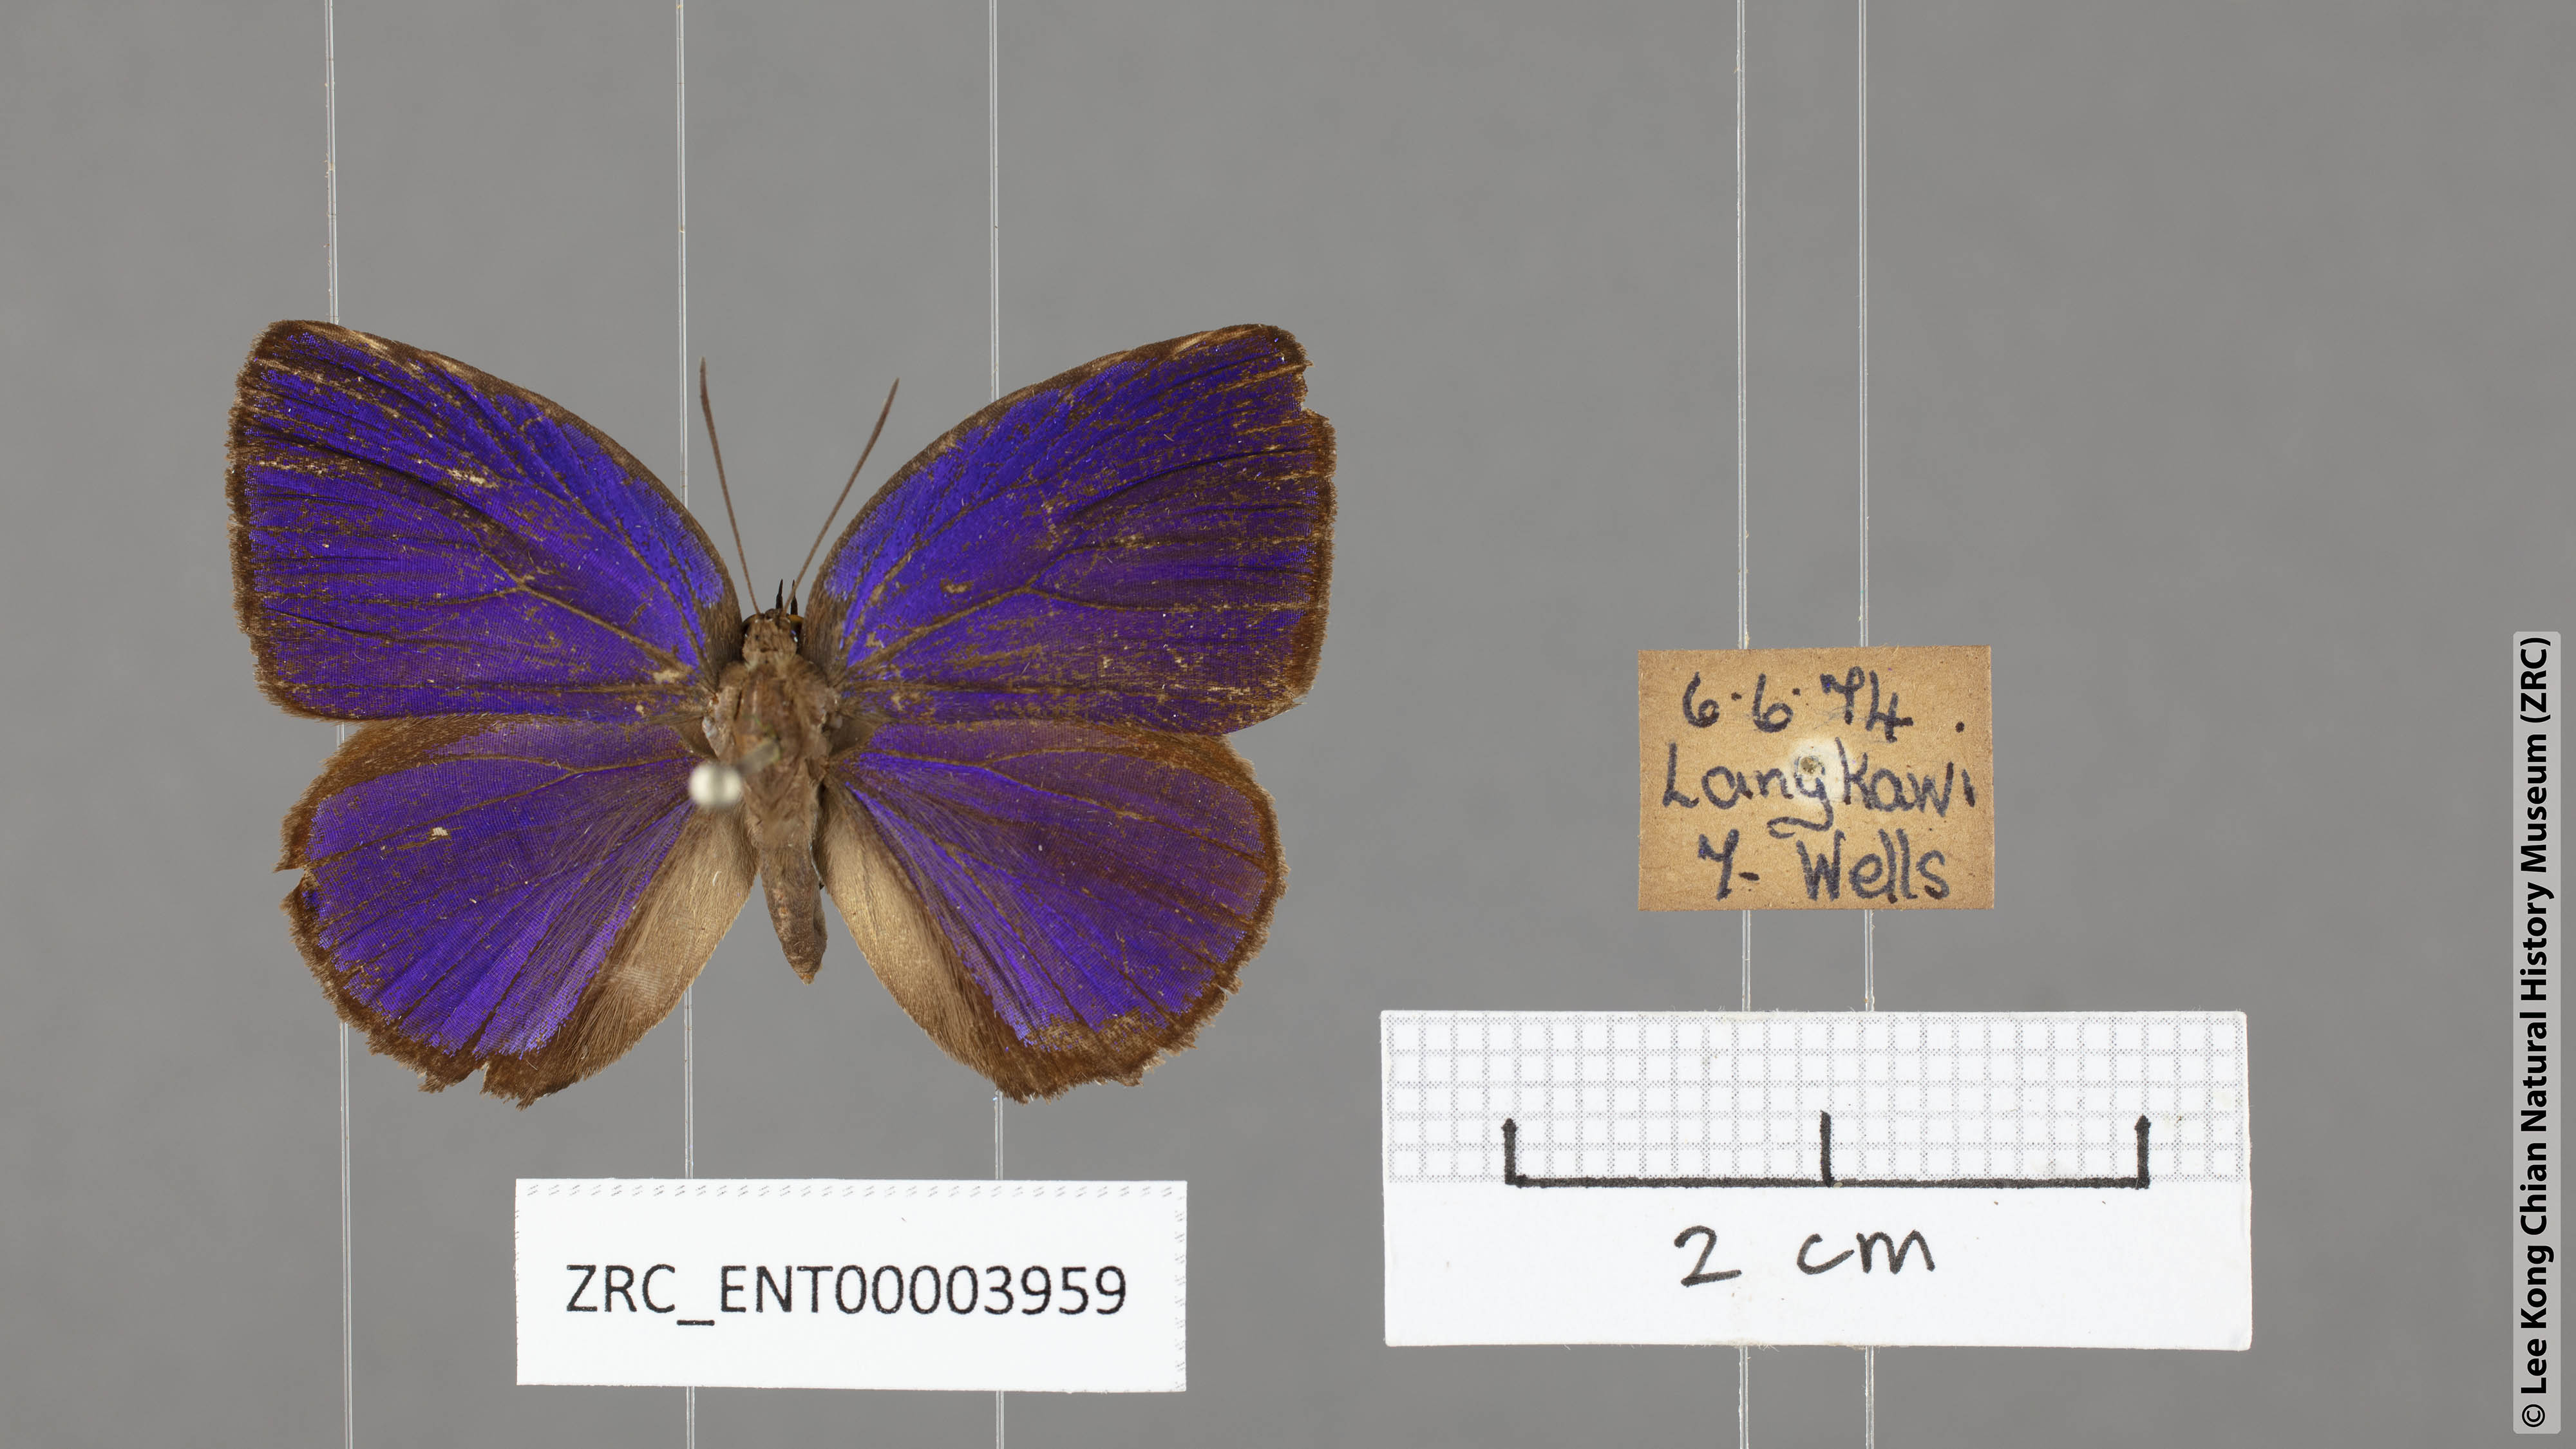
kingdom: Animalia
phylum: Arthropoda
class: Insecta
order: Lepidoptera
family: Lycaenidae
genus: Arhopala
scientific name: Arhopala hypomuta
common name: Violet oakblue
